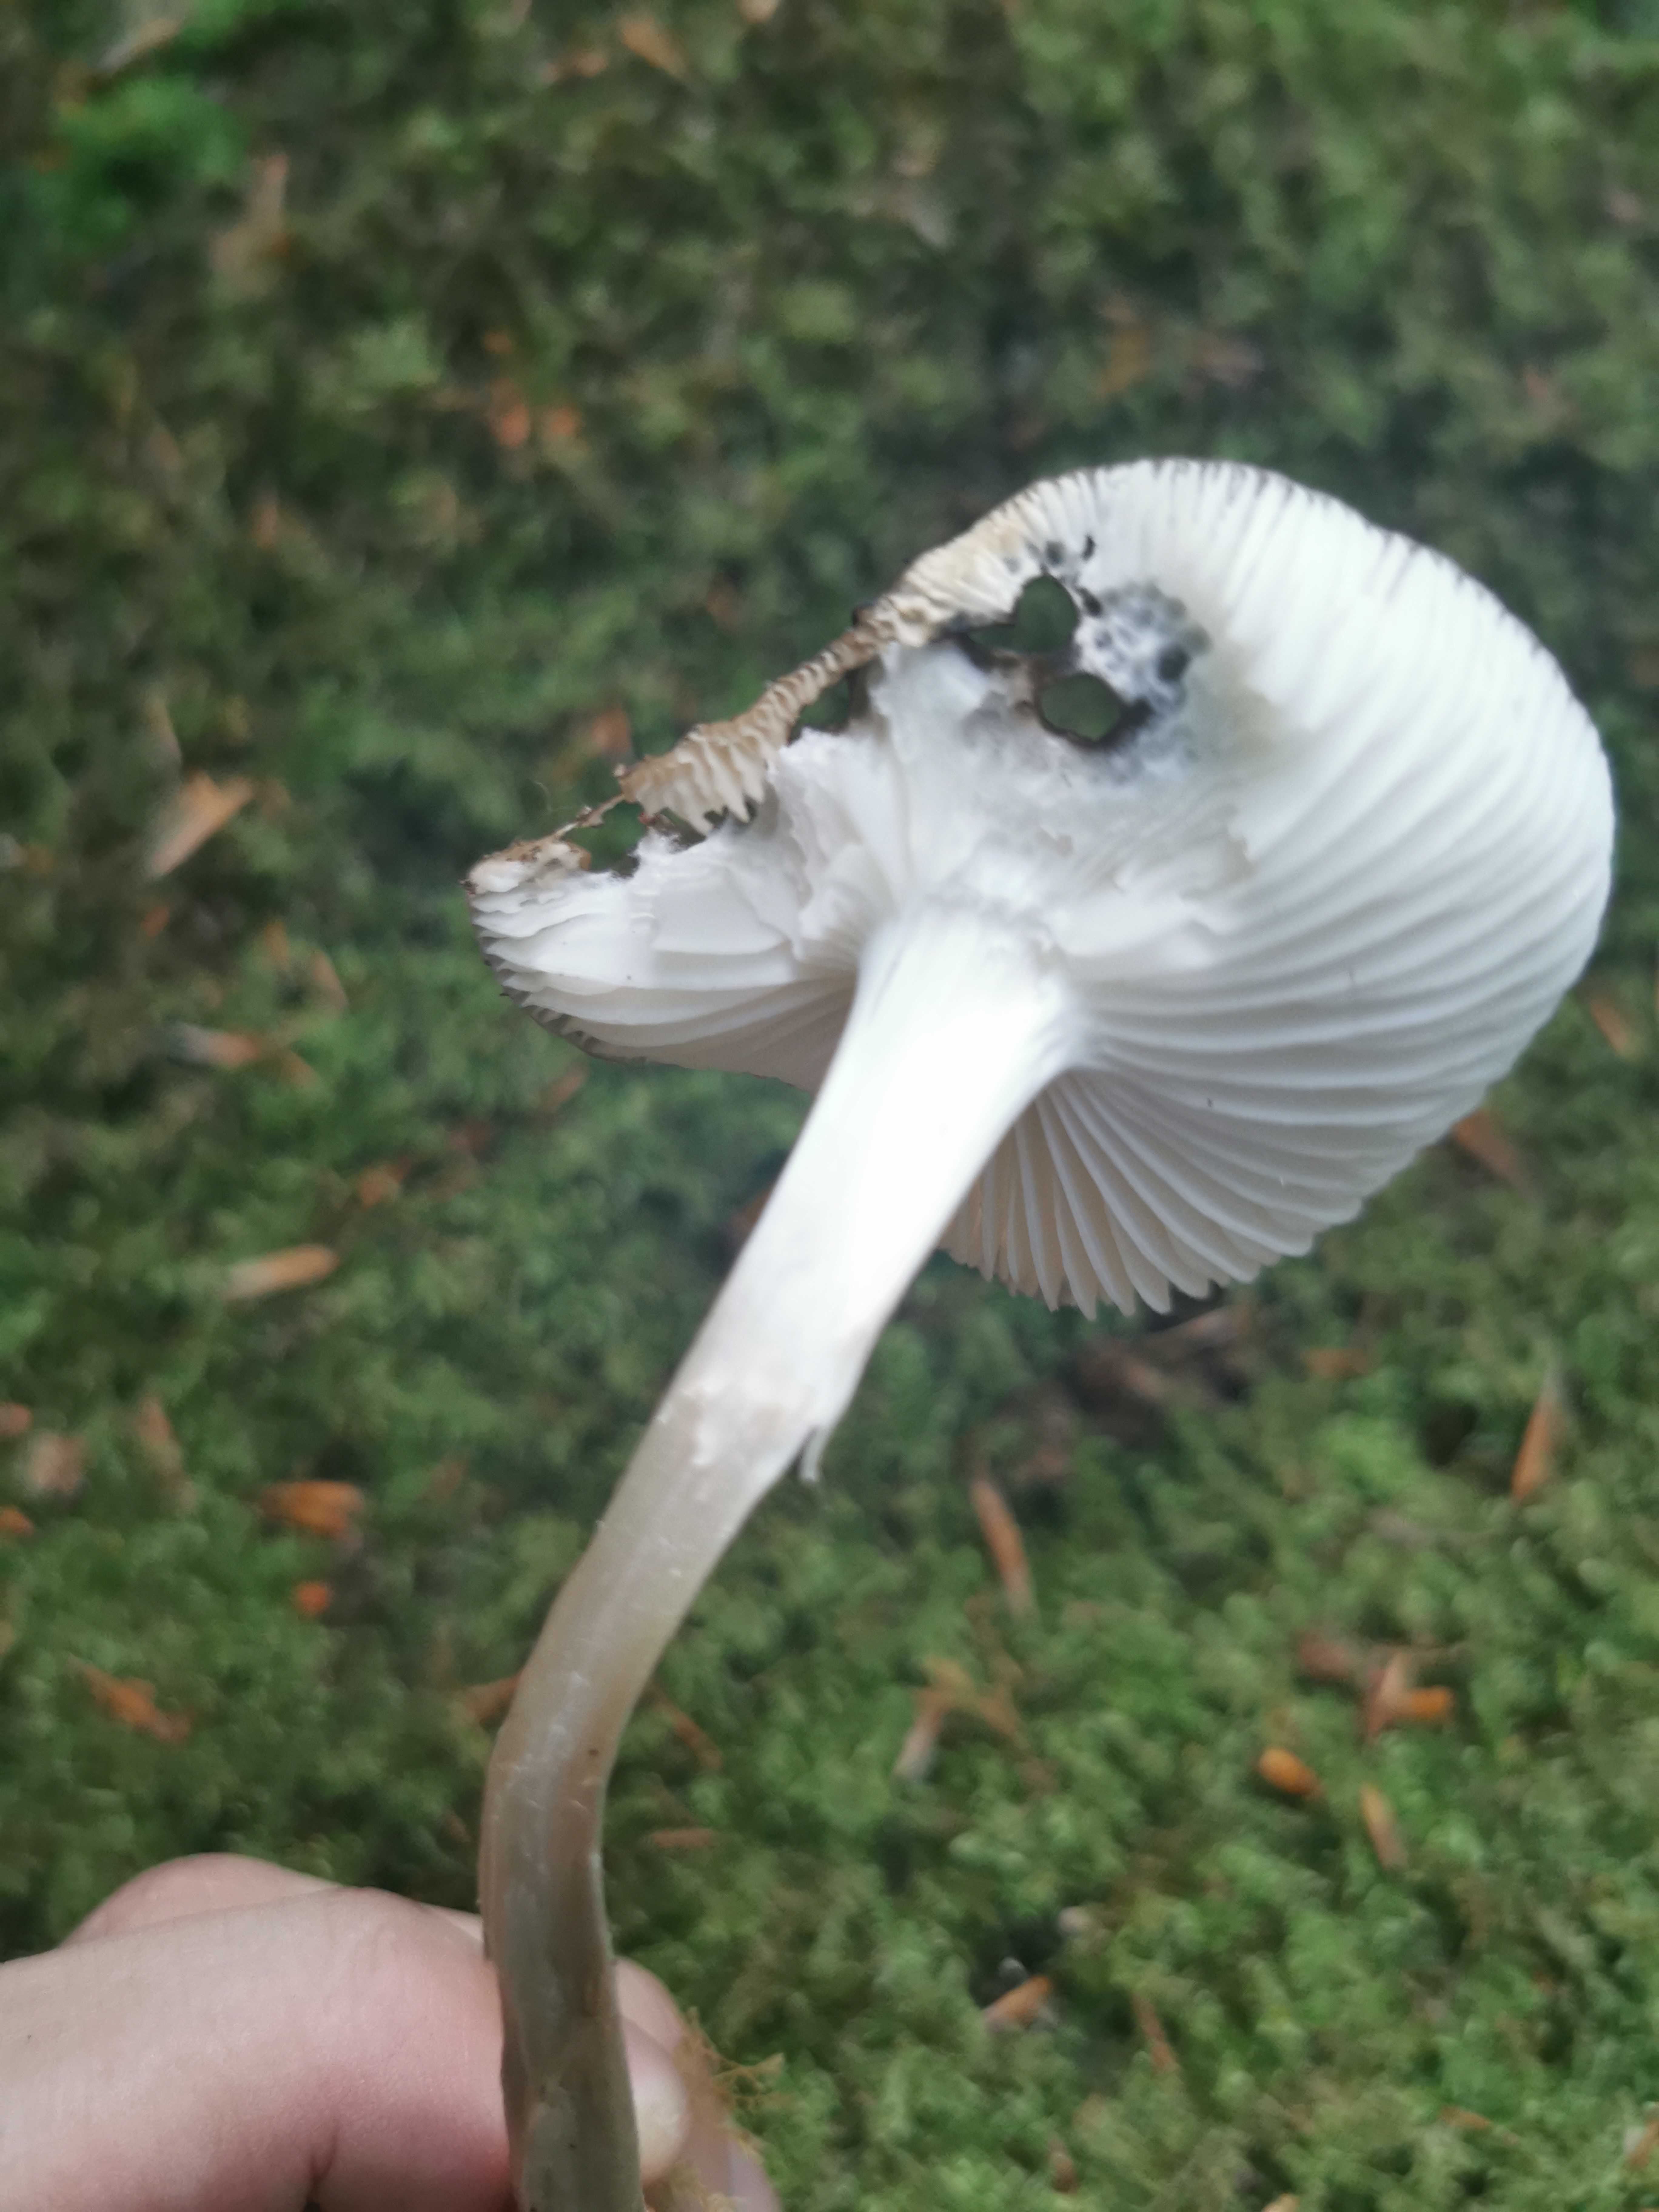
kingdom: Fungi
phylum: Basidiomycota
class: Agaricomycetes
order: Agaricales
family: Physalacriaceae
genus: Hymenopellis
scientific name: Hymenopellis radicata
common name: almindelig pælerodshat
